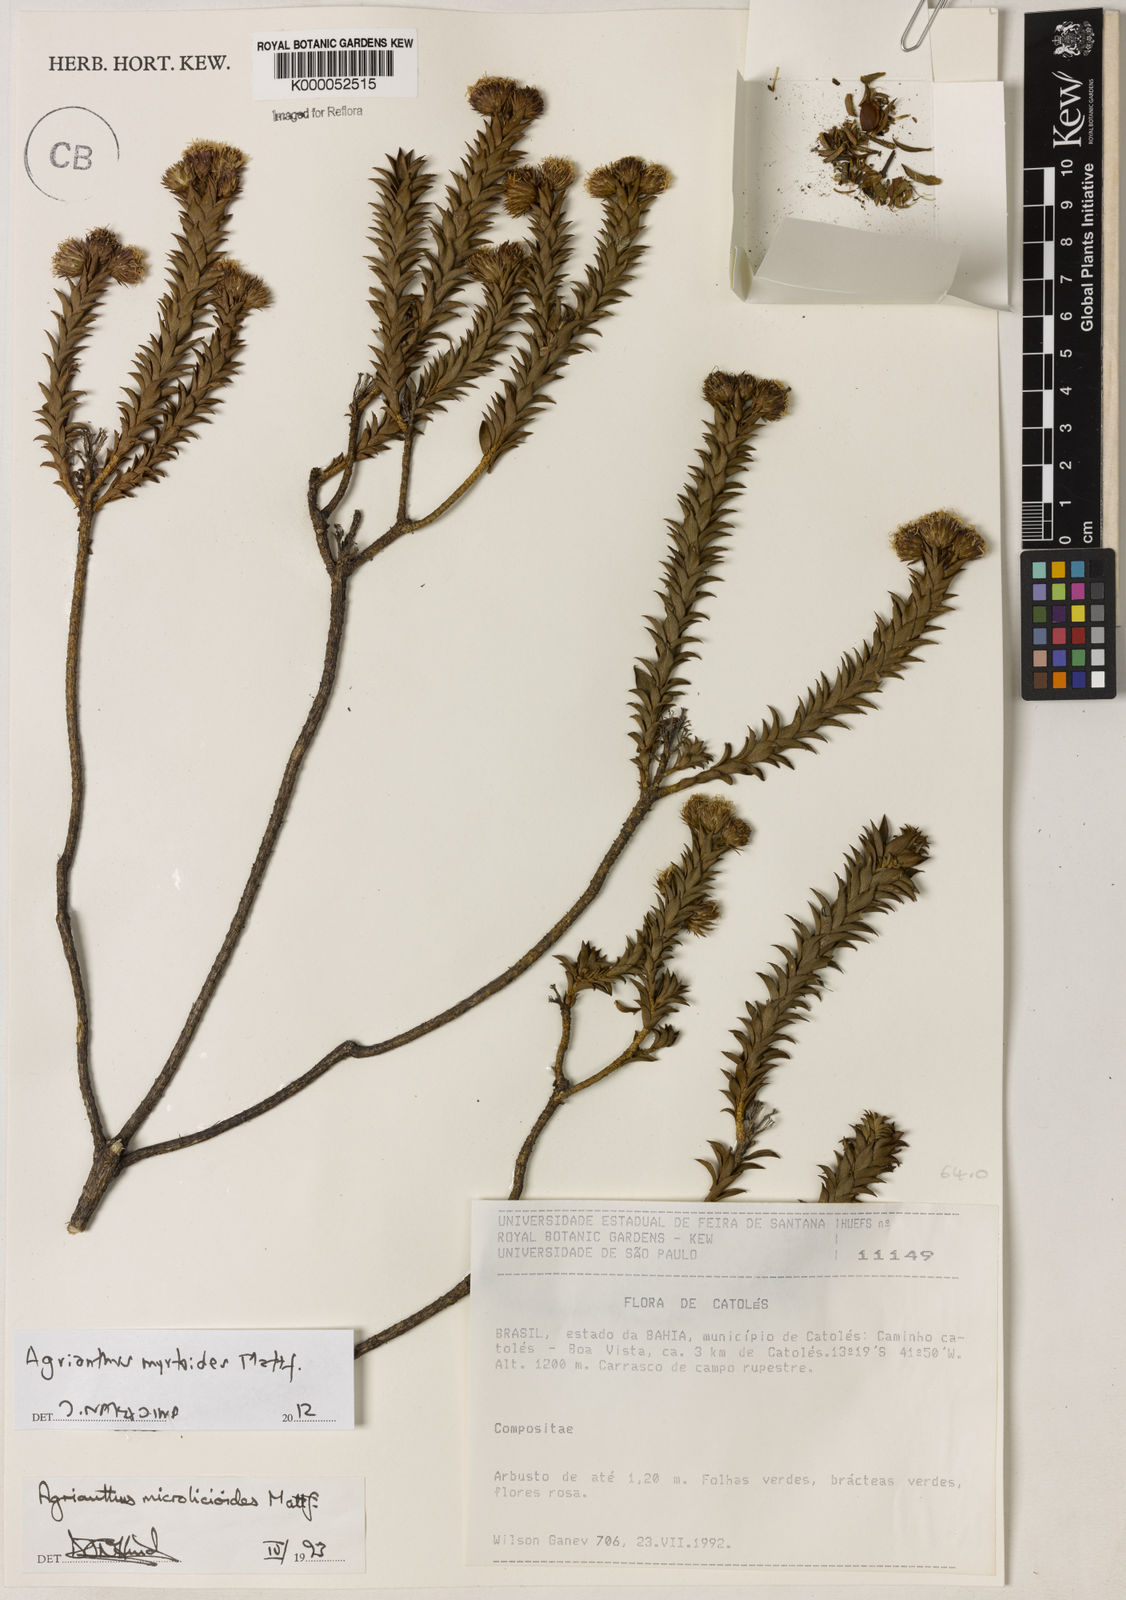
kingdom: Plantae
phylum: Tracheophyta
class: Magnoliopsida
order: Asterales
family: Asteraceae
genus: Agrianthus
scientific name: Agrianthus microlicioides
